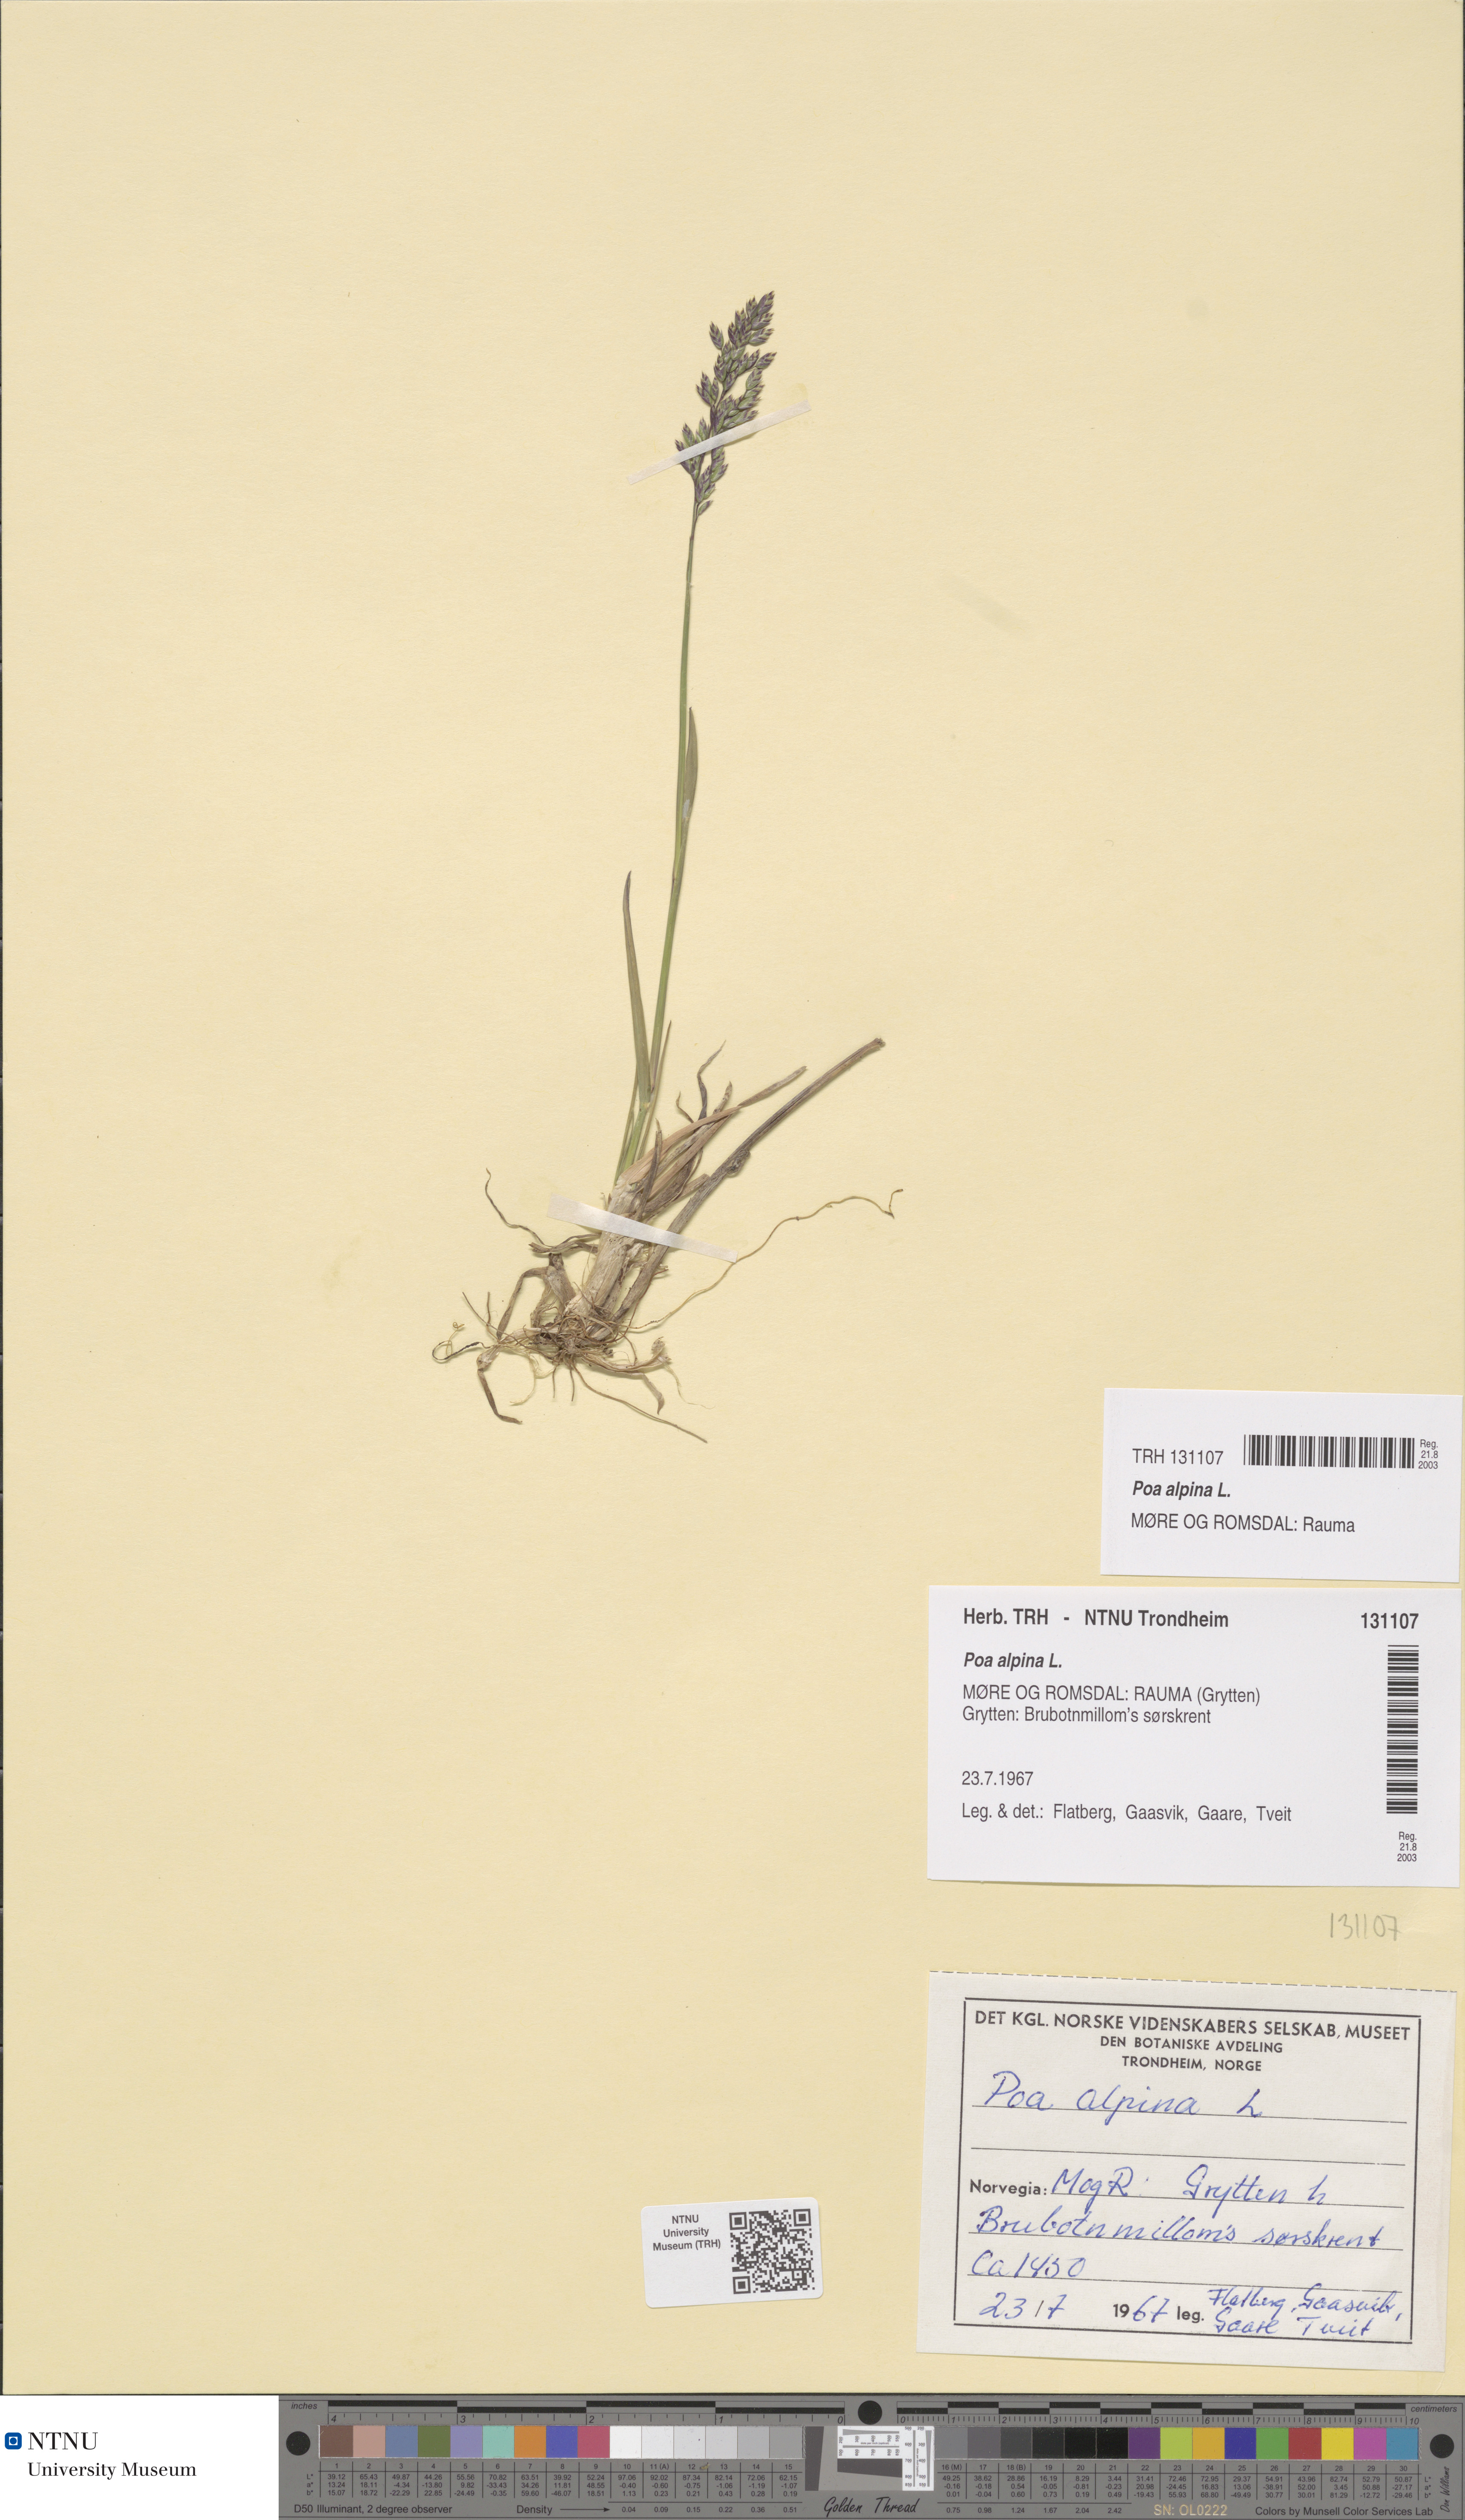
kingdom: Plantae
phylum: Tracheophyta
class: Liliopsida
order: Poales
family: Poaceae
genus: Poa
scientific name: Poa alpina
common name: Alpine bluegrass
